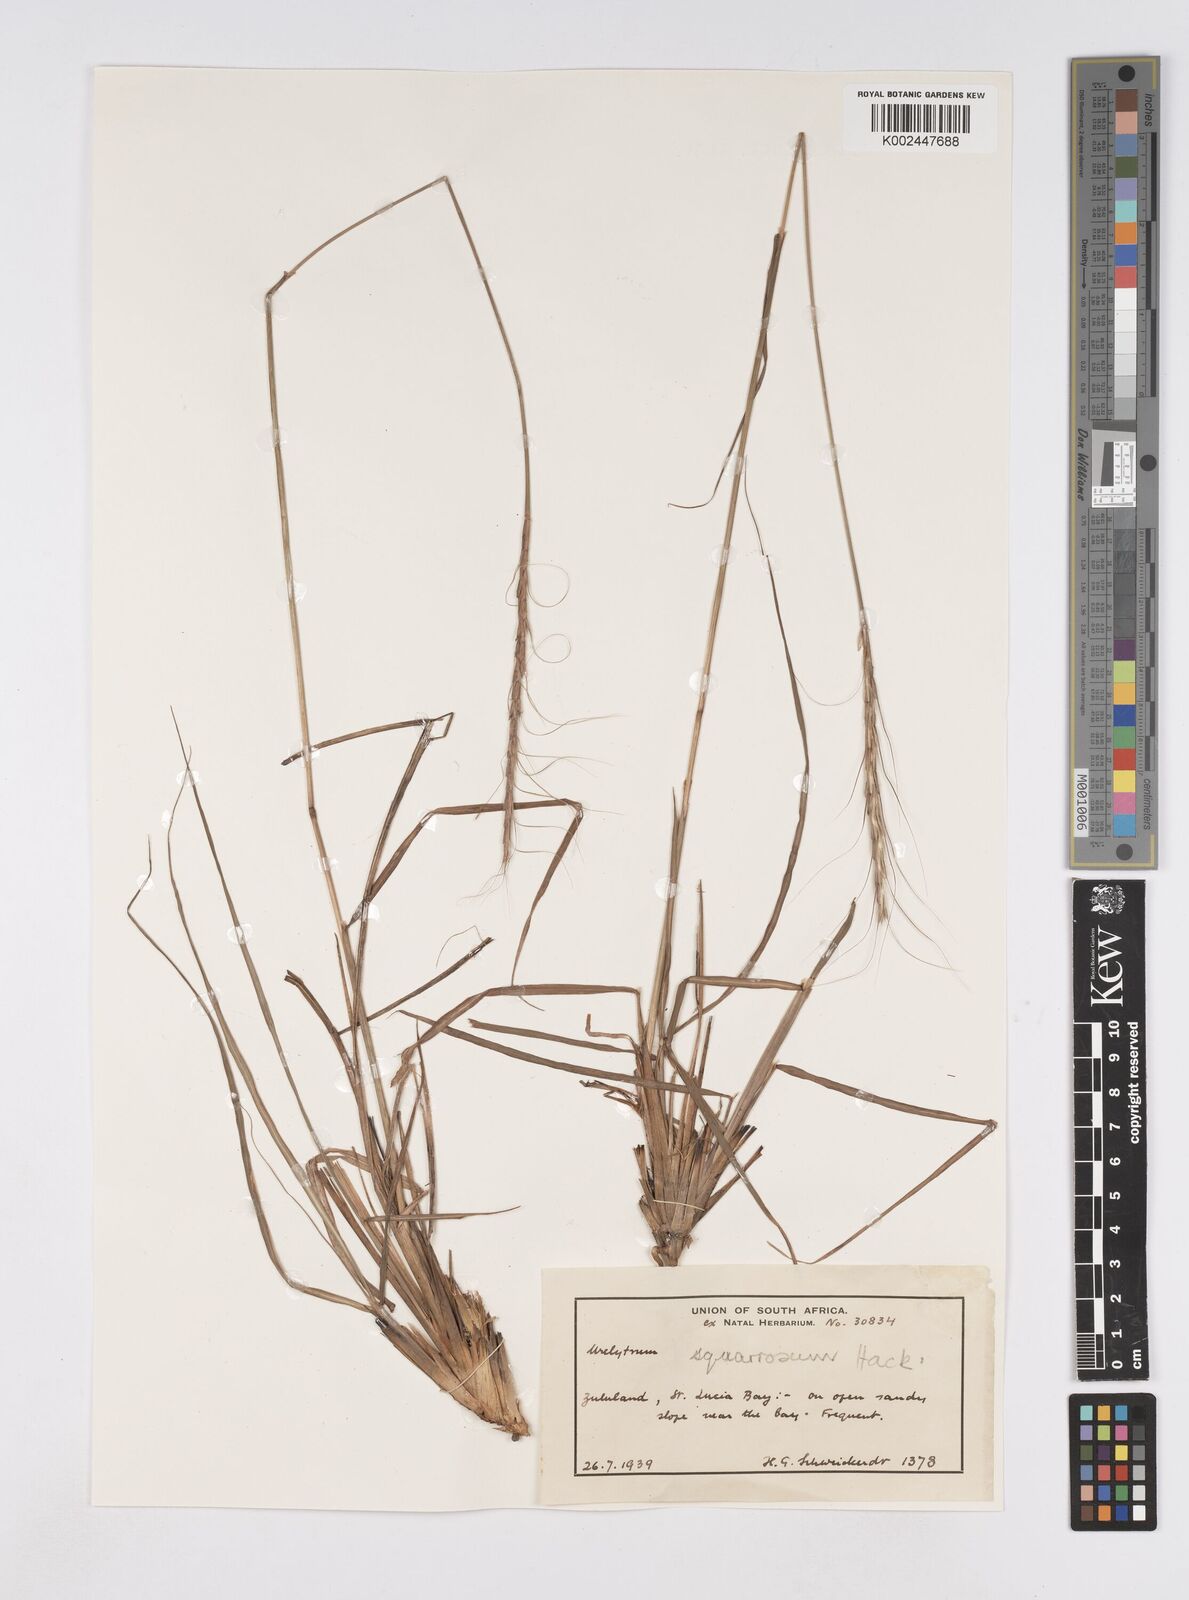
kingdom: Plantae
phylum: Tracheophyta
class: Liliopsida
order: Poales
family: Poaceae
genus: Urelytrum
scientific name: Urelytrum agropyroides
